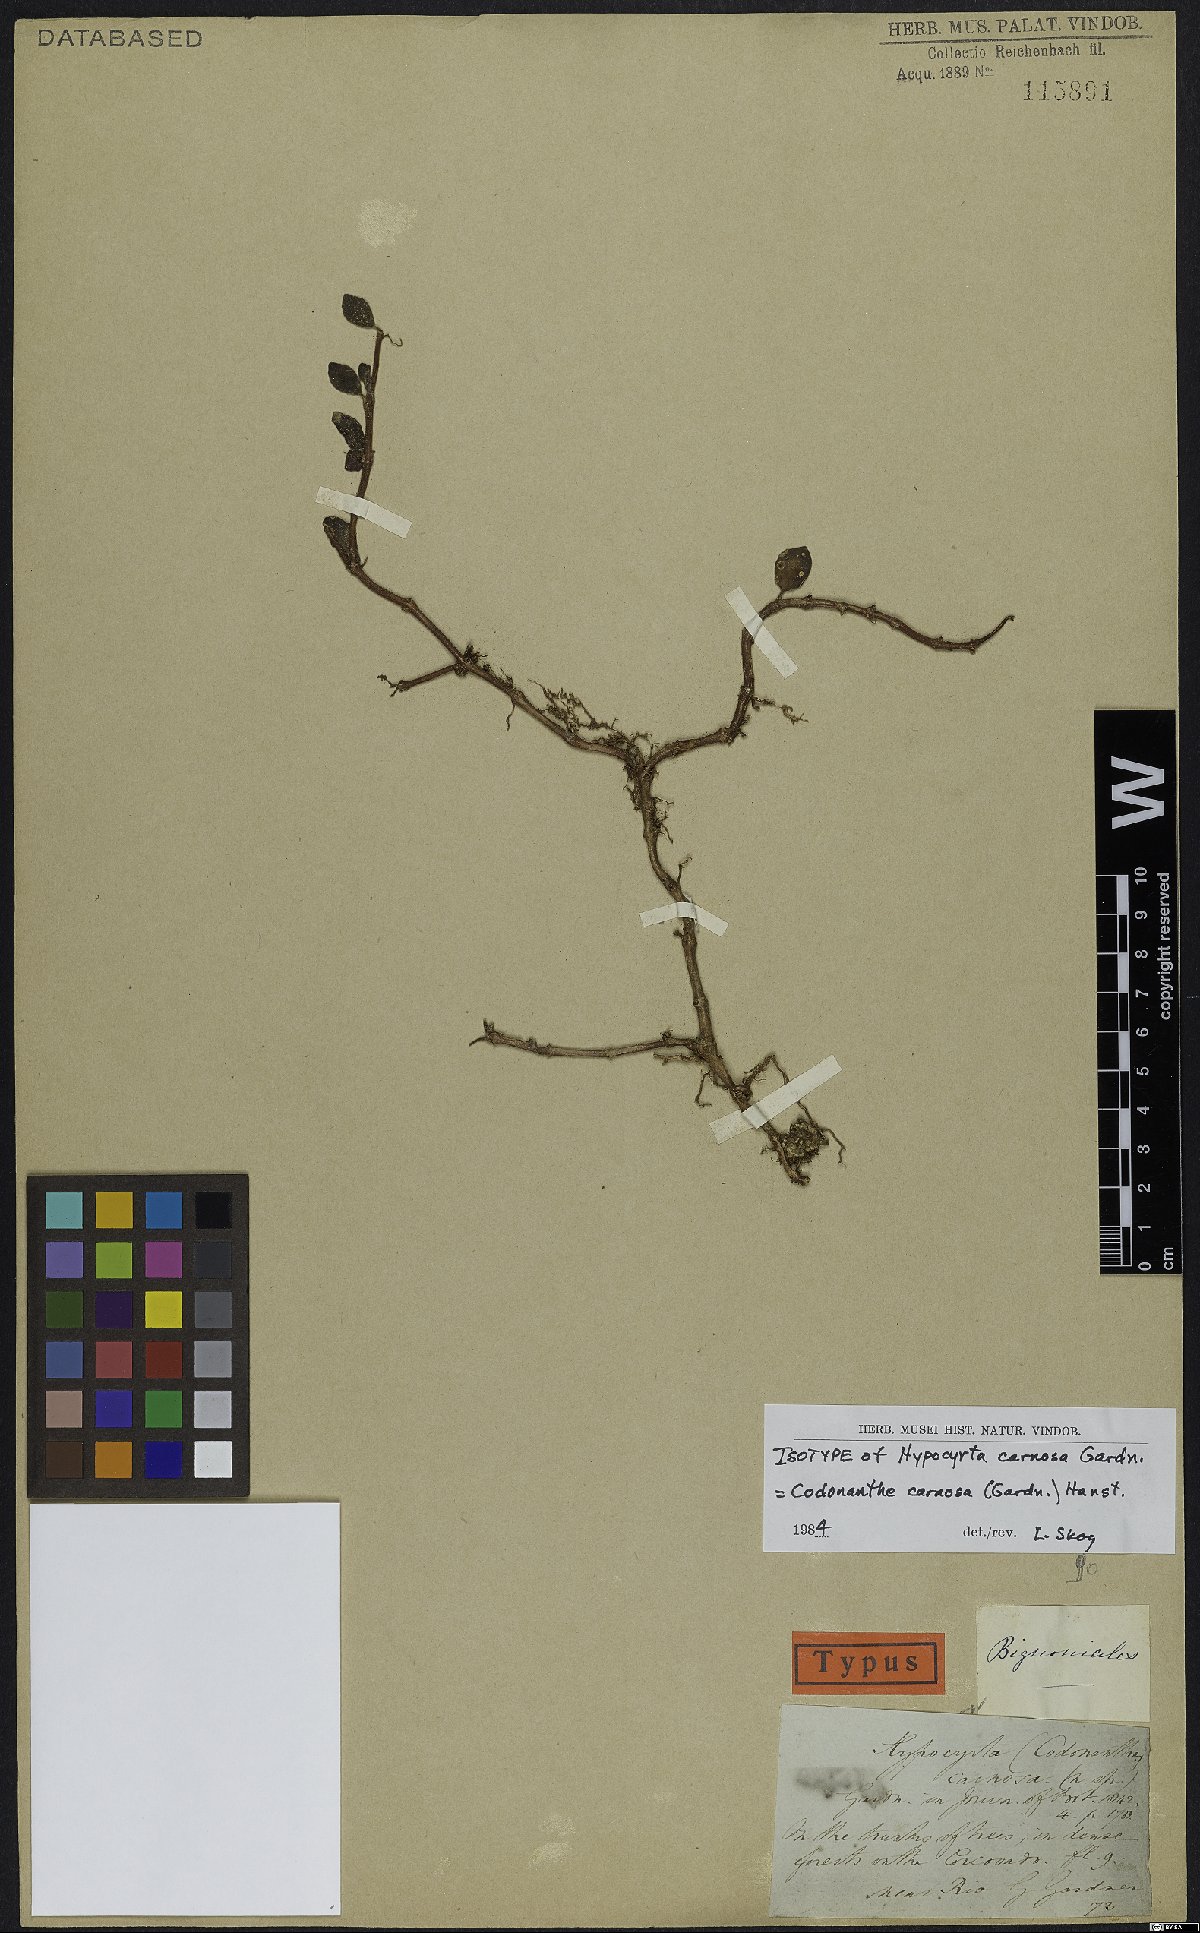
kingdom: Plantae
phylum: Tracheophyta
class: Magnoliopsida
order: Lamiales
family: Gesneriaceae
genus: Codonanthe
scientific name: Codonanthe carnosa
